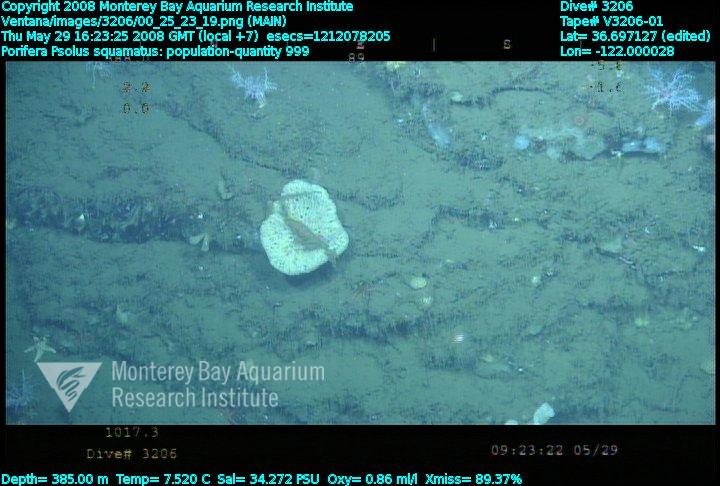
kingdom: Animalia
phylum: Porifera
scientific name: Porifera
